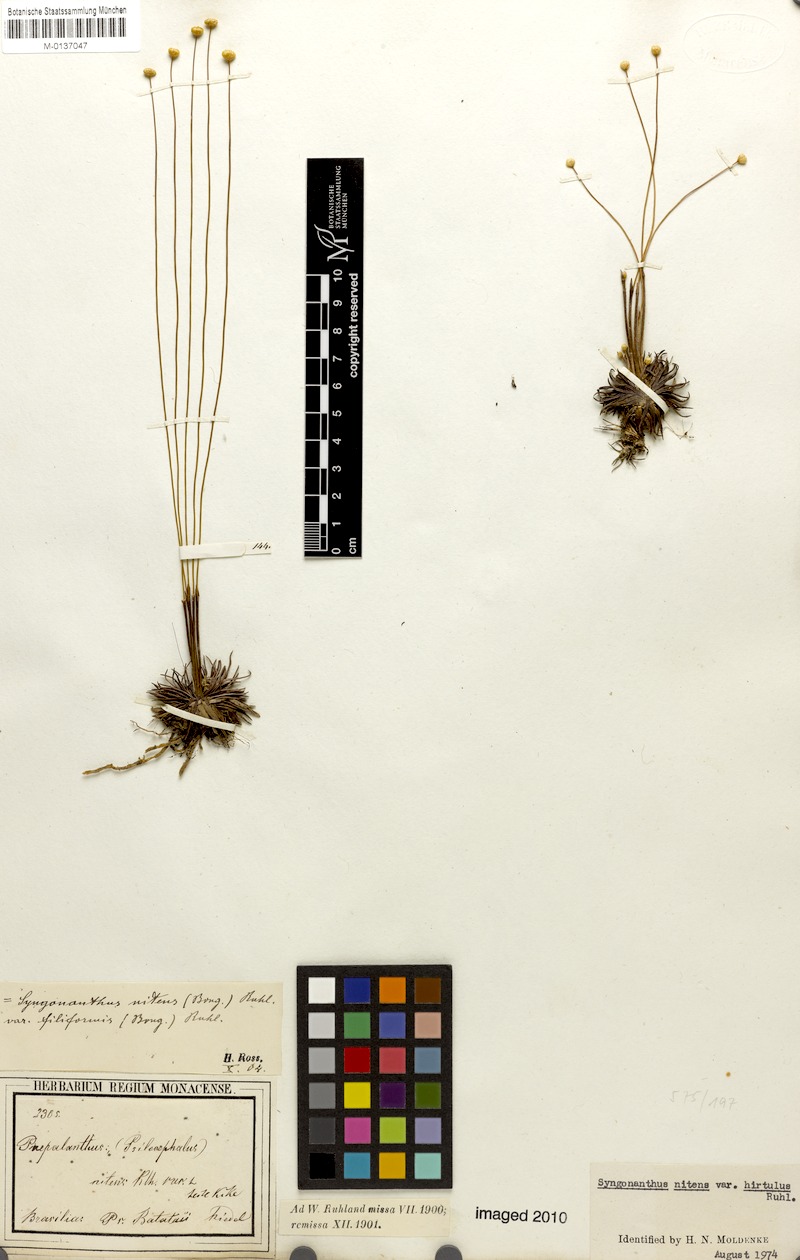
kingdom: Plantae
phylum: Tracheophyta
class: Liliopsida
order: Poales
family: Eriocaulaceae
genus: Syngonanthus
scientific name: Syngonanthus nitens
